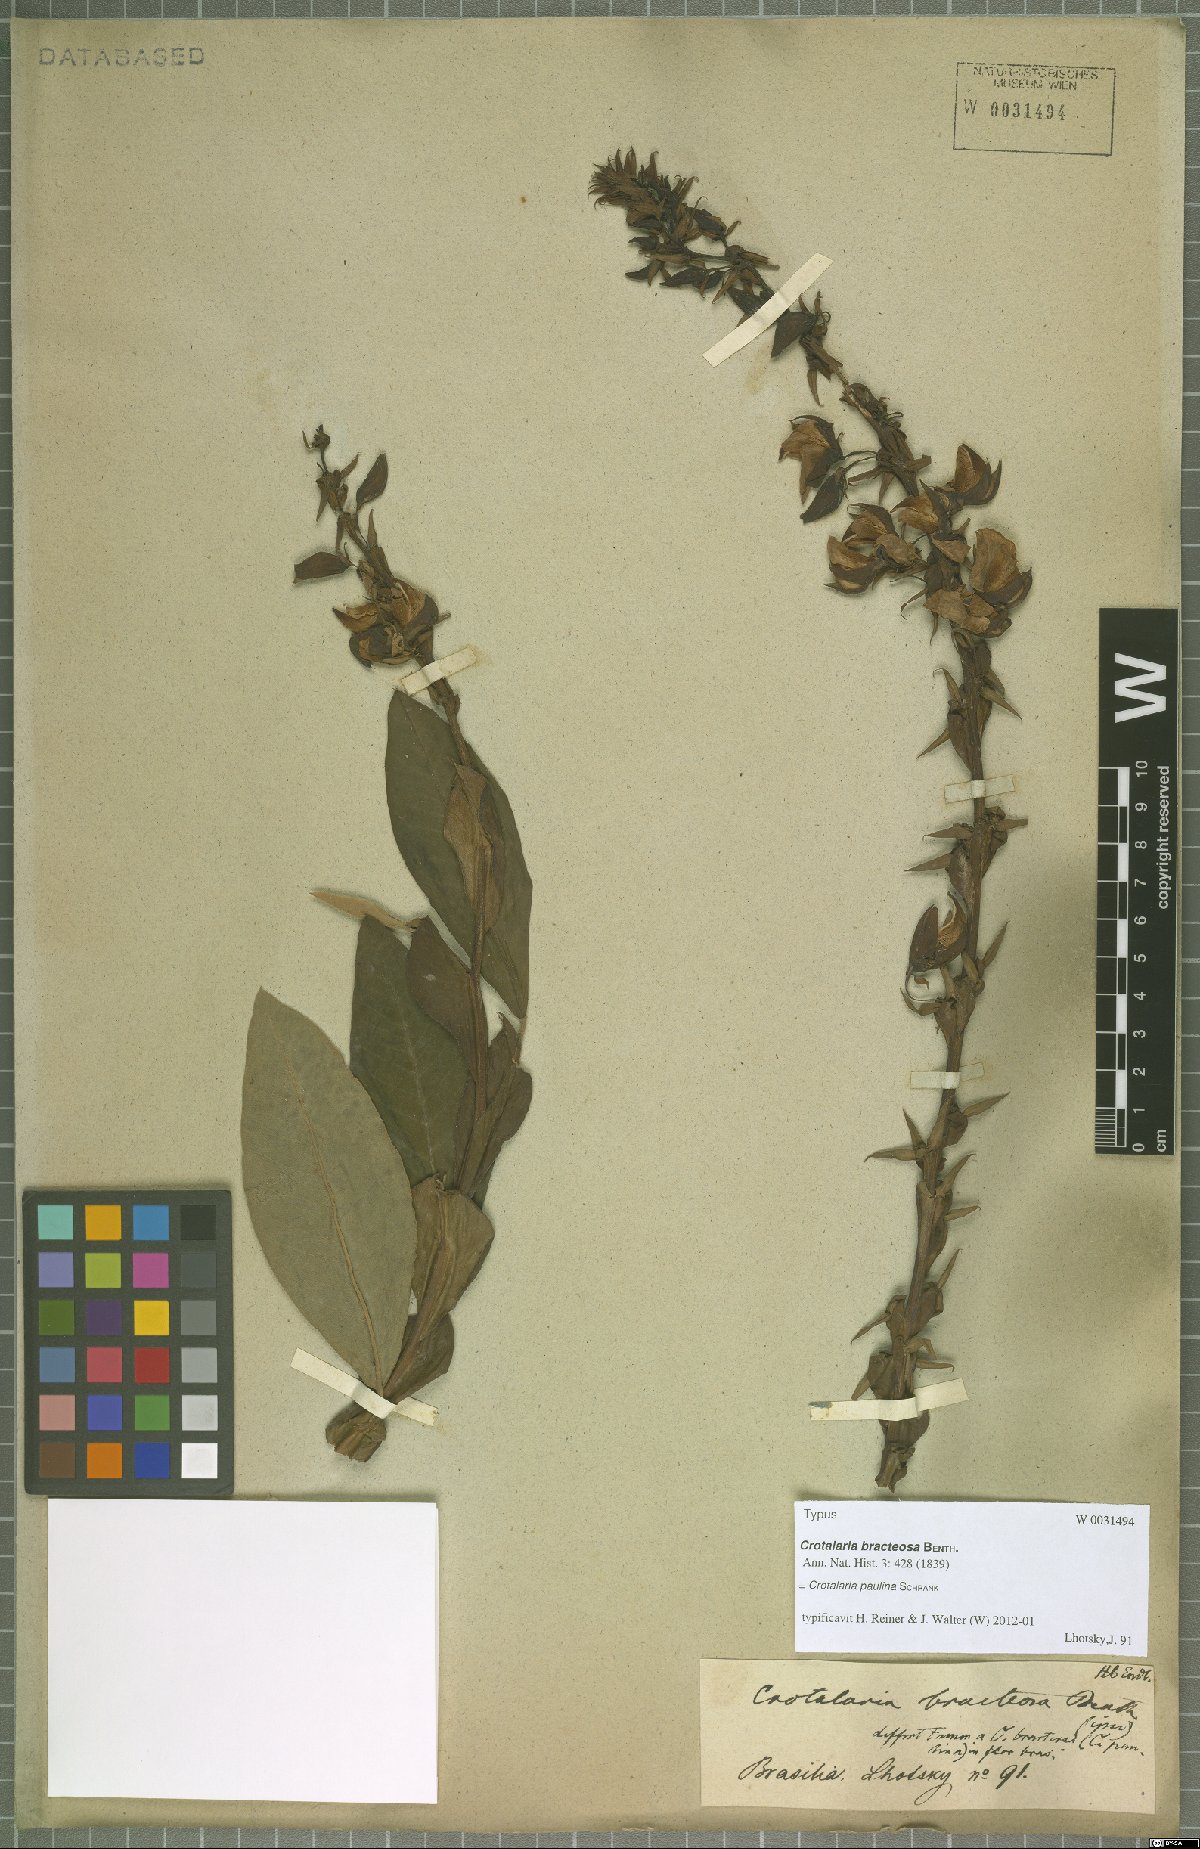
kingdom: Plantae
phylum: Tracheophyta
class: Magnoliopsida
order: Fabales
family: Fabaceae
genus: Crotalaria
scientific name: Crotalaria paulina
